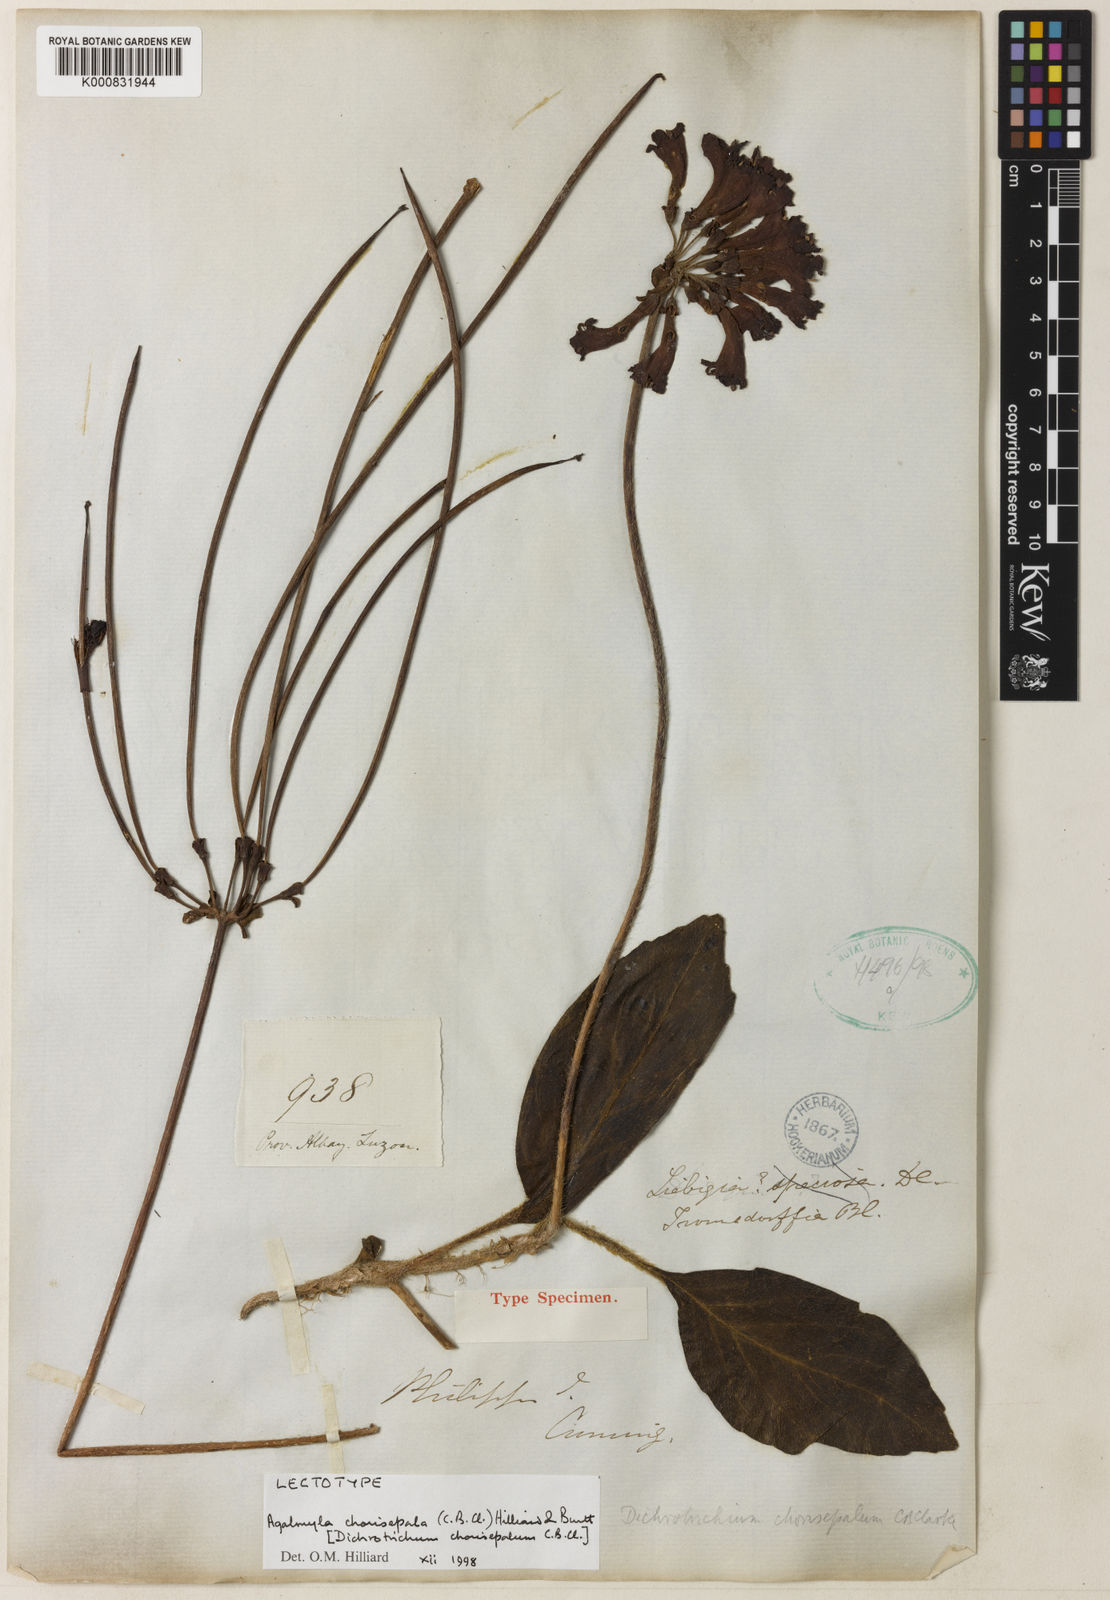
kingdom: Plantae
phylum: Tracheophyta
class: Magnoliopsida
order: Lamiales
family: Gesneriaceae
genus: Agalmyla
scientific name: Agalmyla chorisepala
